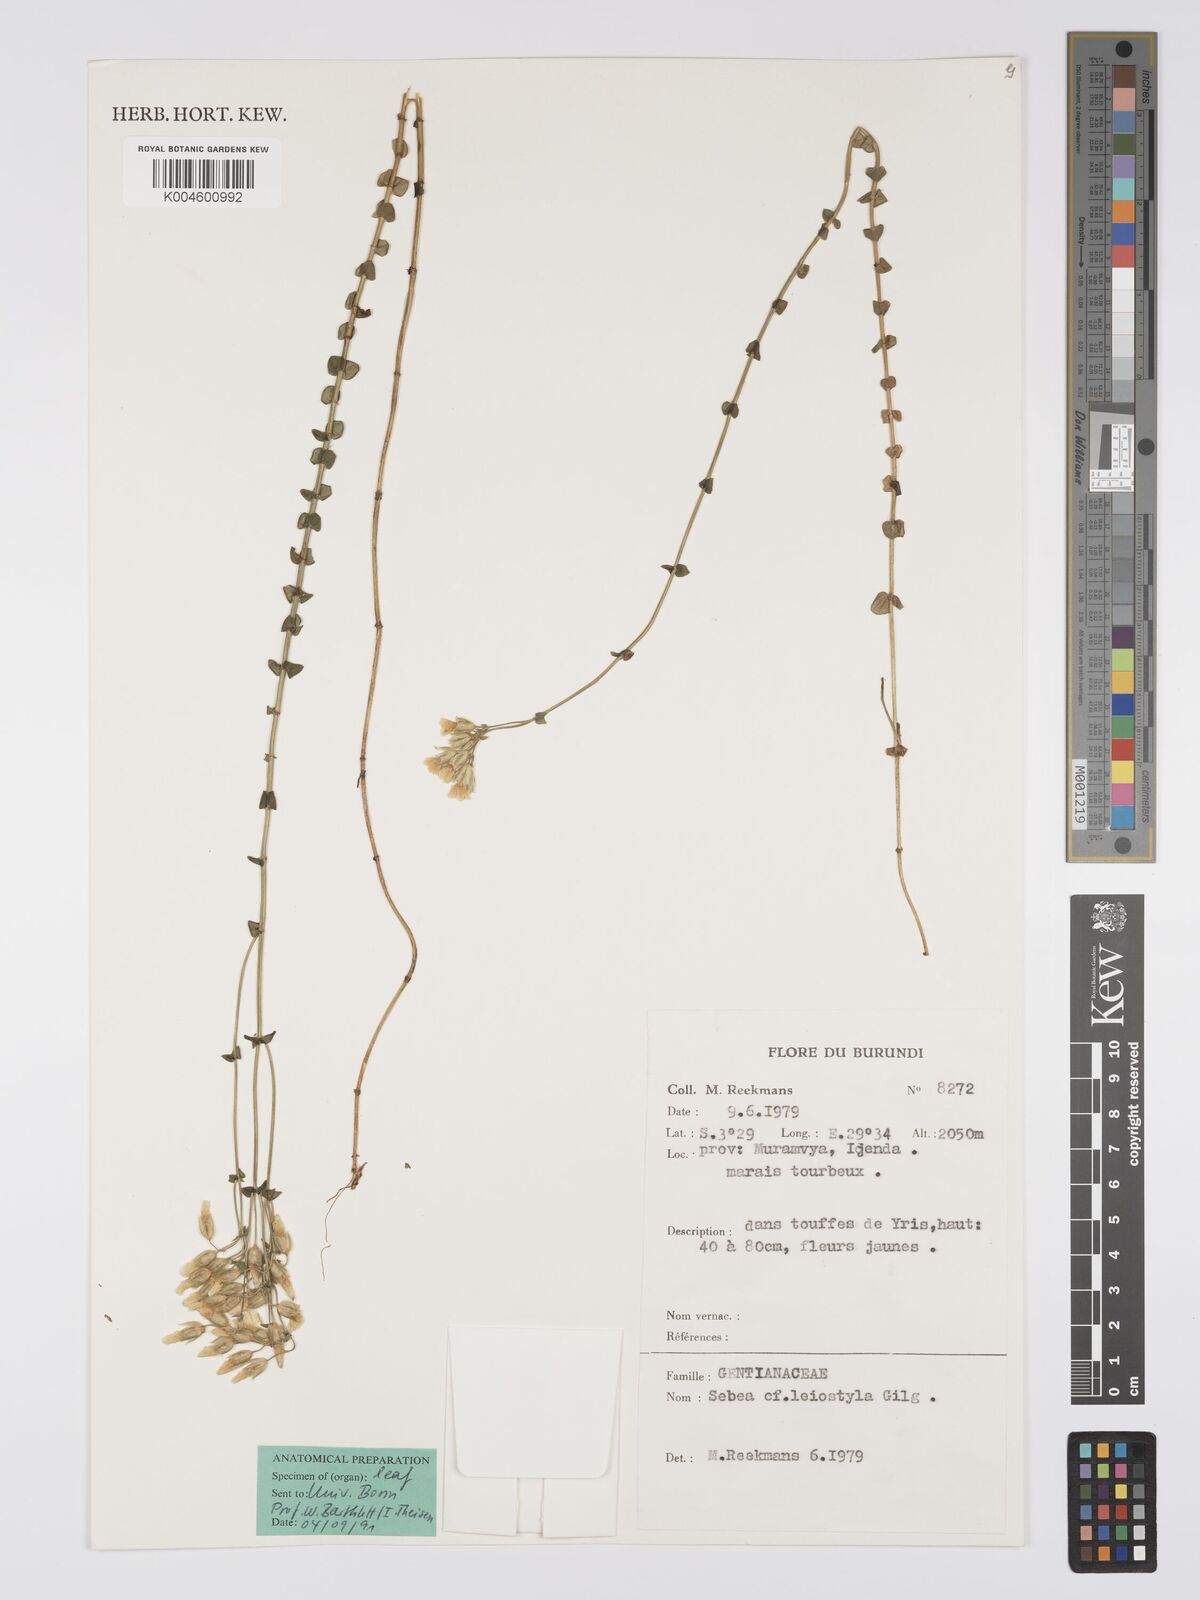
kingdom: Plantae
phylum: Tracheophyta
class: Magnoliopsida
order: Gentianales
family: Gentianaceae
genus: Sebaea
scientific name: Sebaea leiostyla
